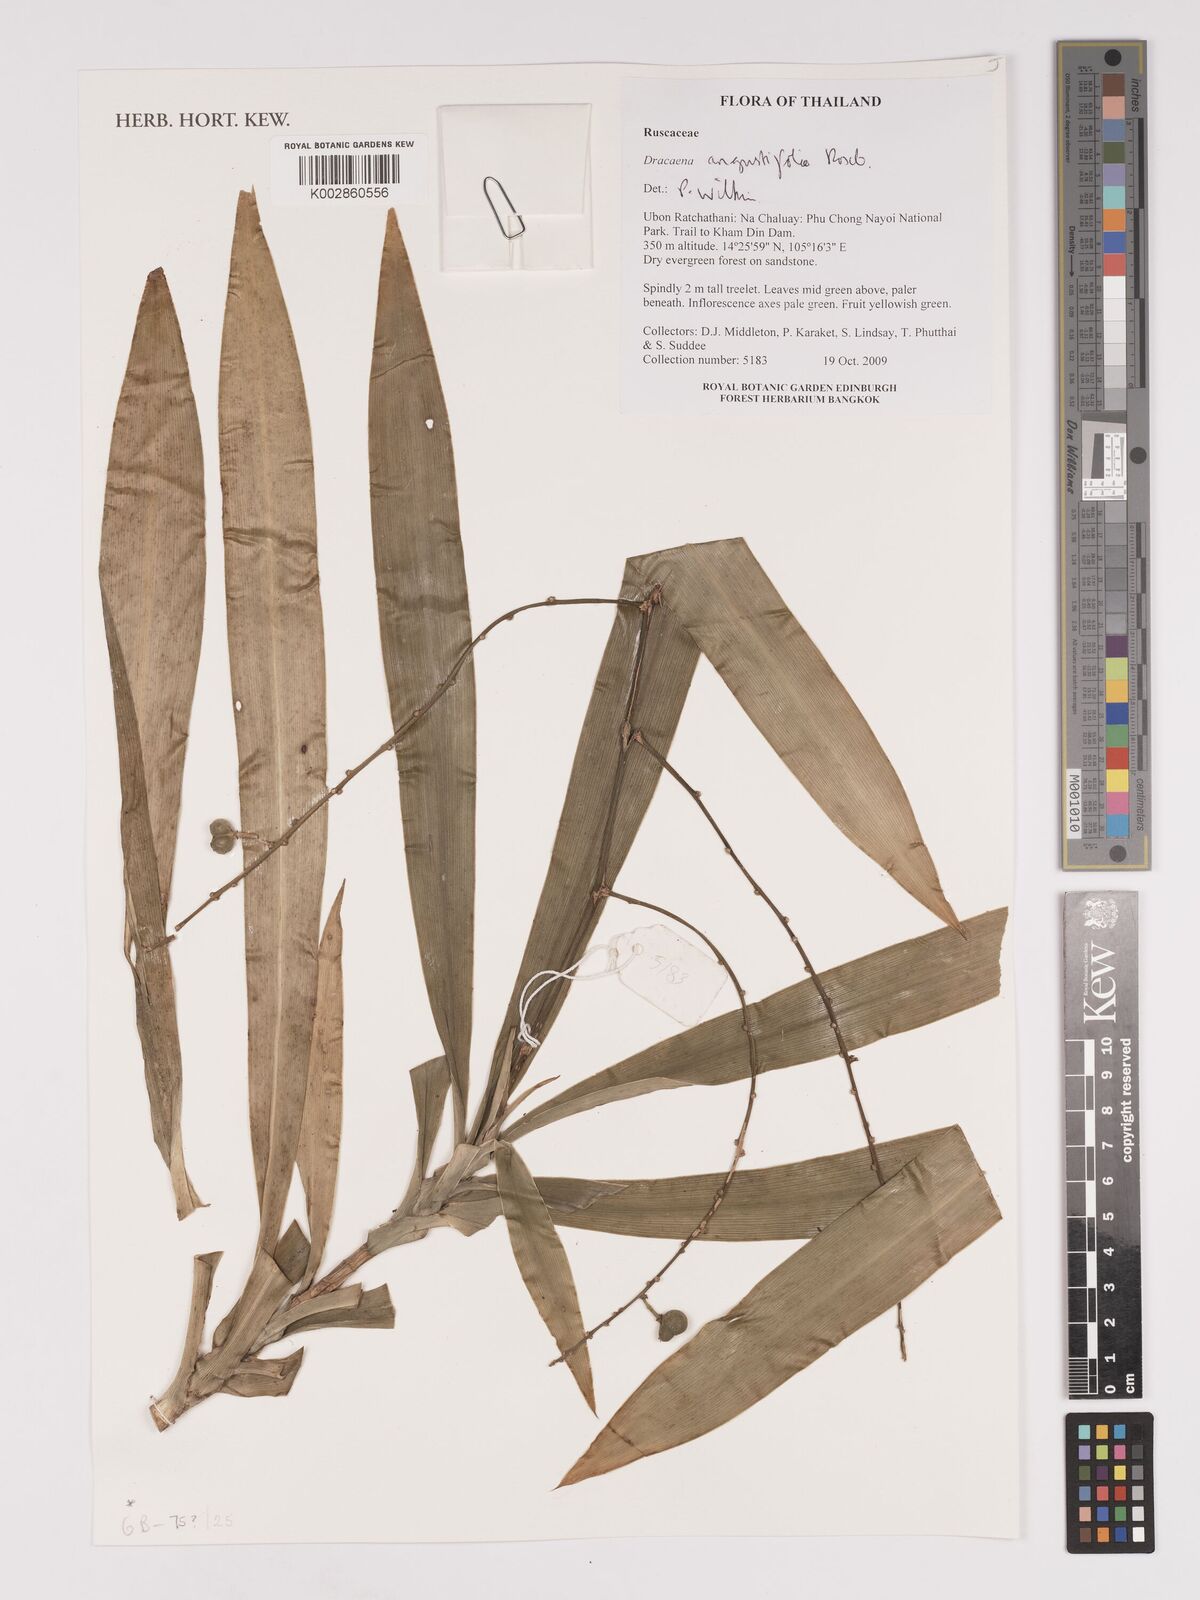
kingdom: Plantae
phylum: Tracheophyta
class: Liliopsida
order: Asparagales
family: Asparagaceae
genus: Dracaena
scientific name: Dracaena angustifolia
